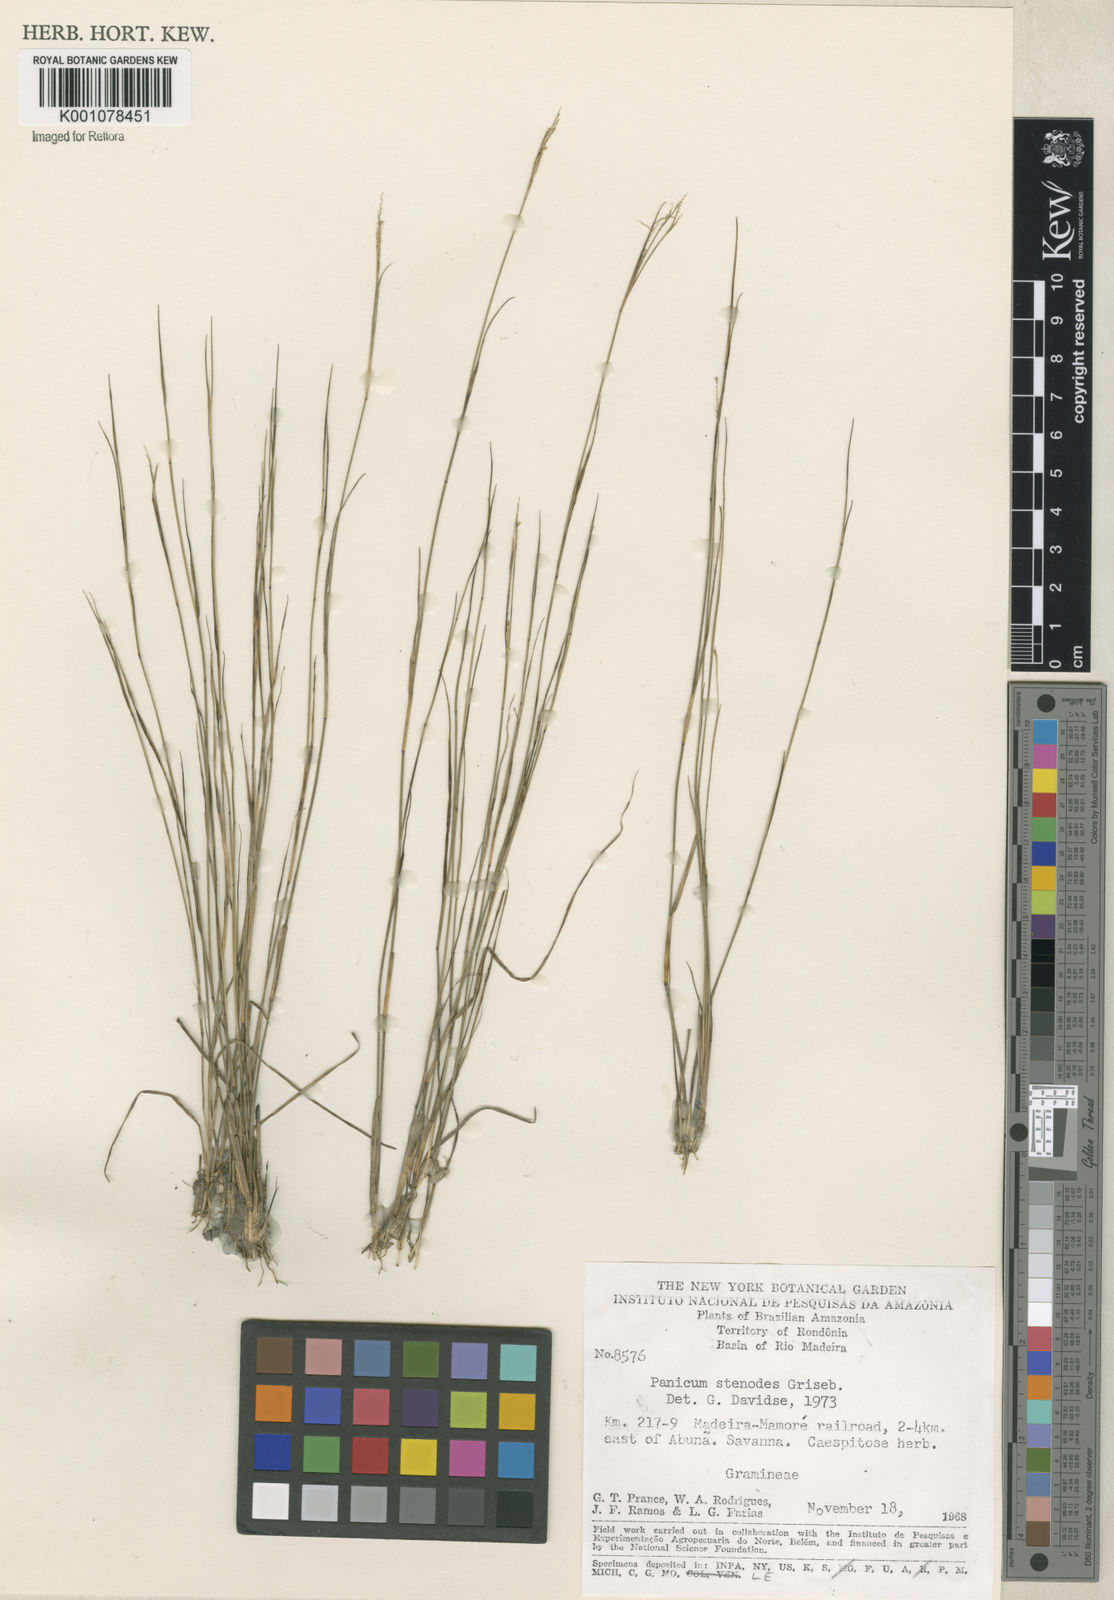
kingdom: Plantae
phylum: Tracheophyta
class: Liliopsida
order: Poales
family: Poaceae
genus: Coleataenia
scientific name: Coleataenia stenodes
